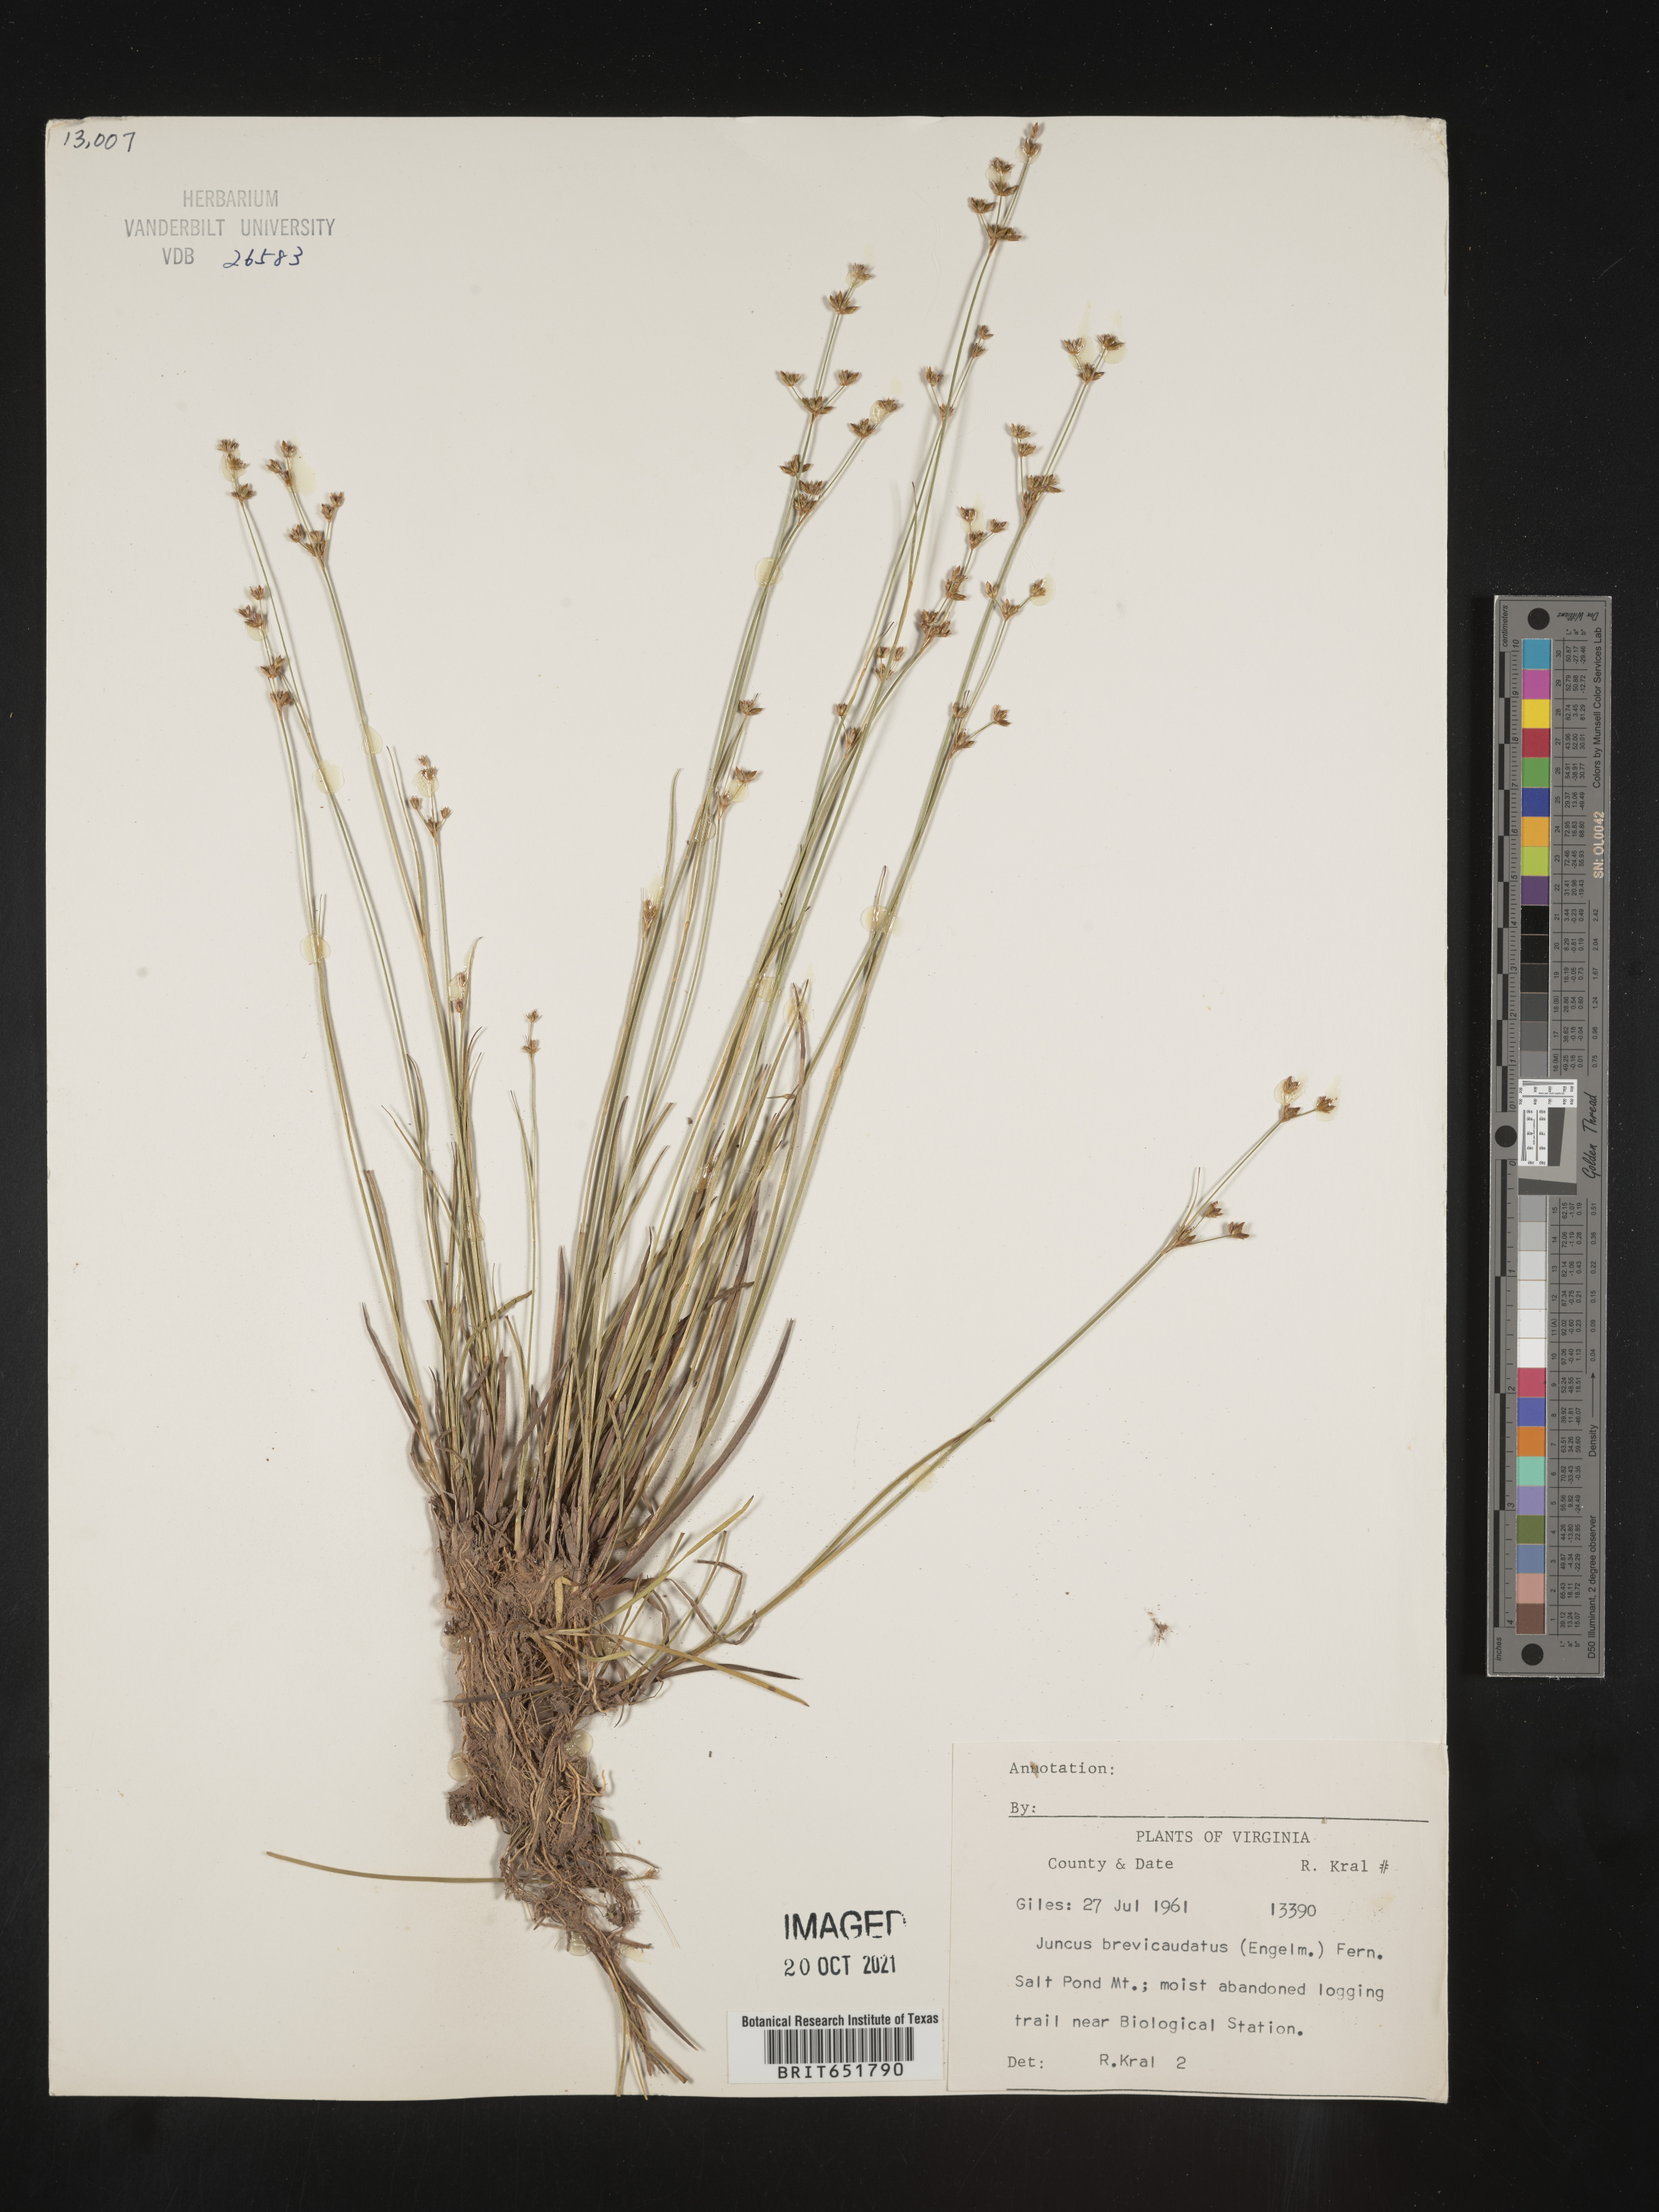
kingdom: Plantae
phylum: Tracheophyta
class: Liliopsida
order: Poales
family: Juncaceae
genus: Juncus
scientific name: Juncus brevicaudatus
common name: Narrow-panicle rush
